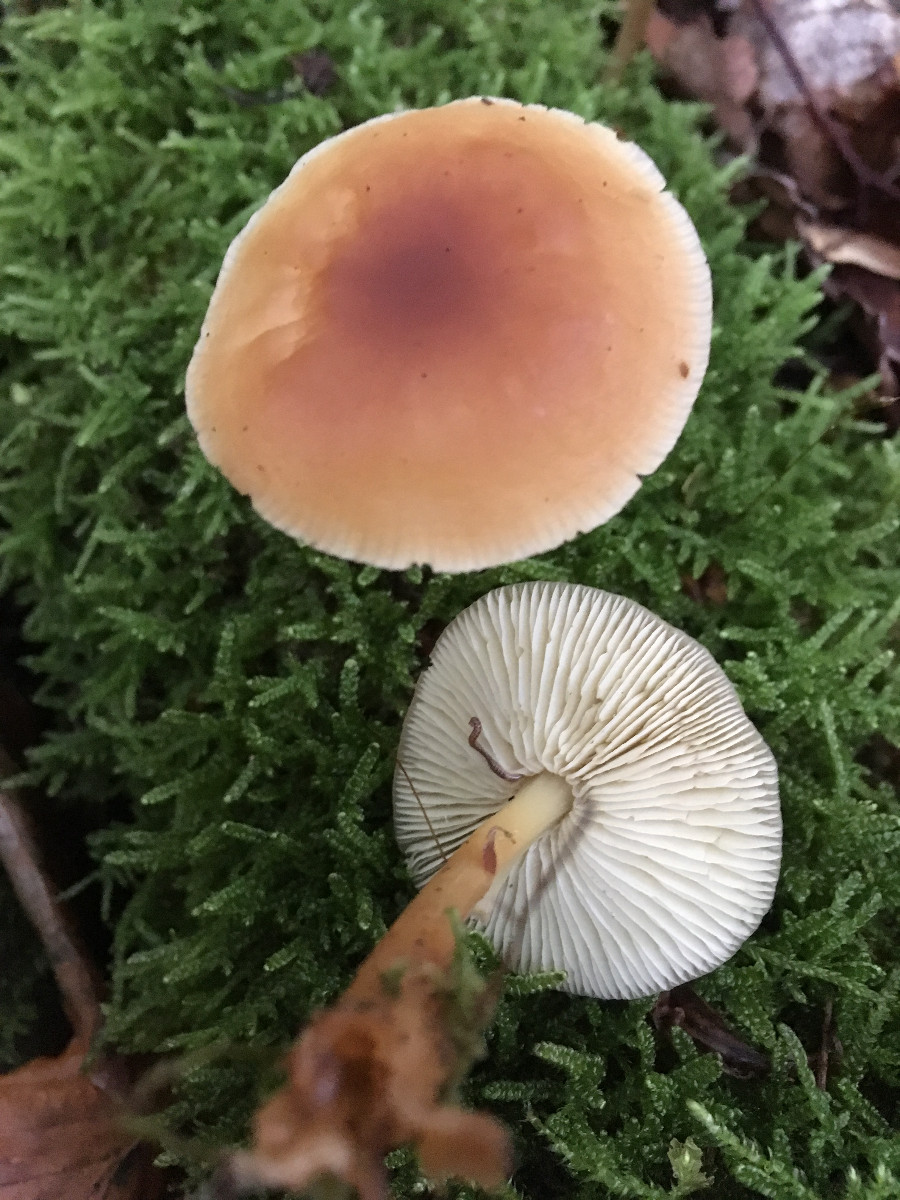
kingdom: Fungi
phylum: Basidiomycota
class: Agaricomycetes
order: Agaricales
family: Omphalotaceae
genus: Gymnopus
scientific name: Gymnopus dryophilus
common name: løv-fladhat
